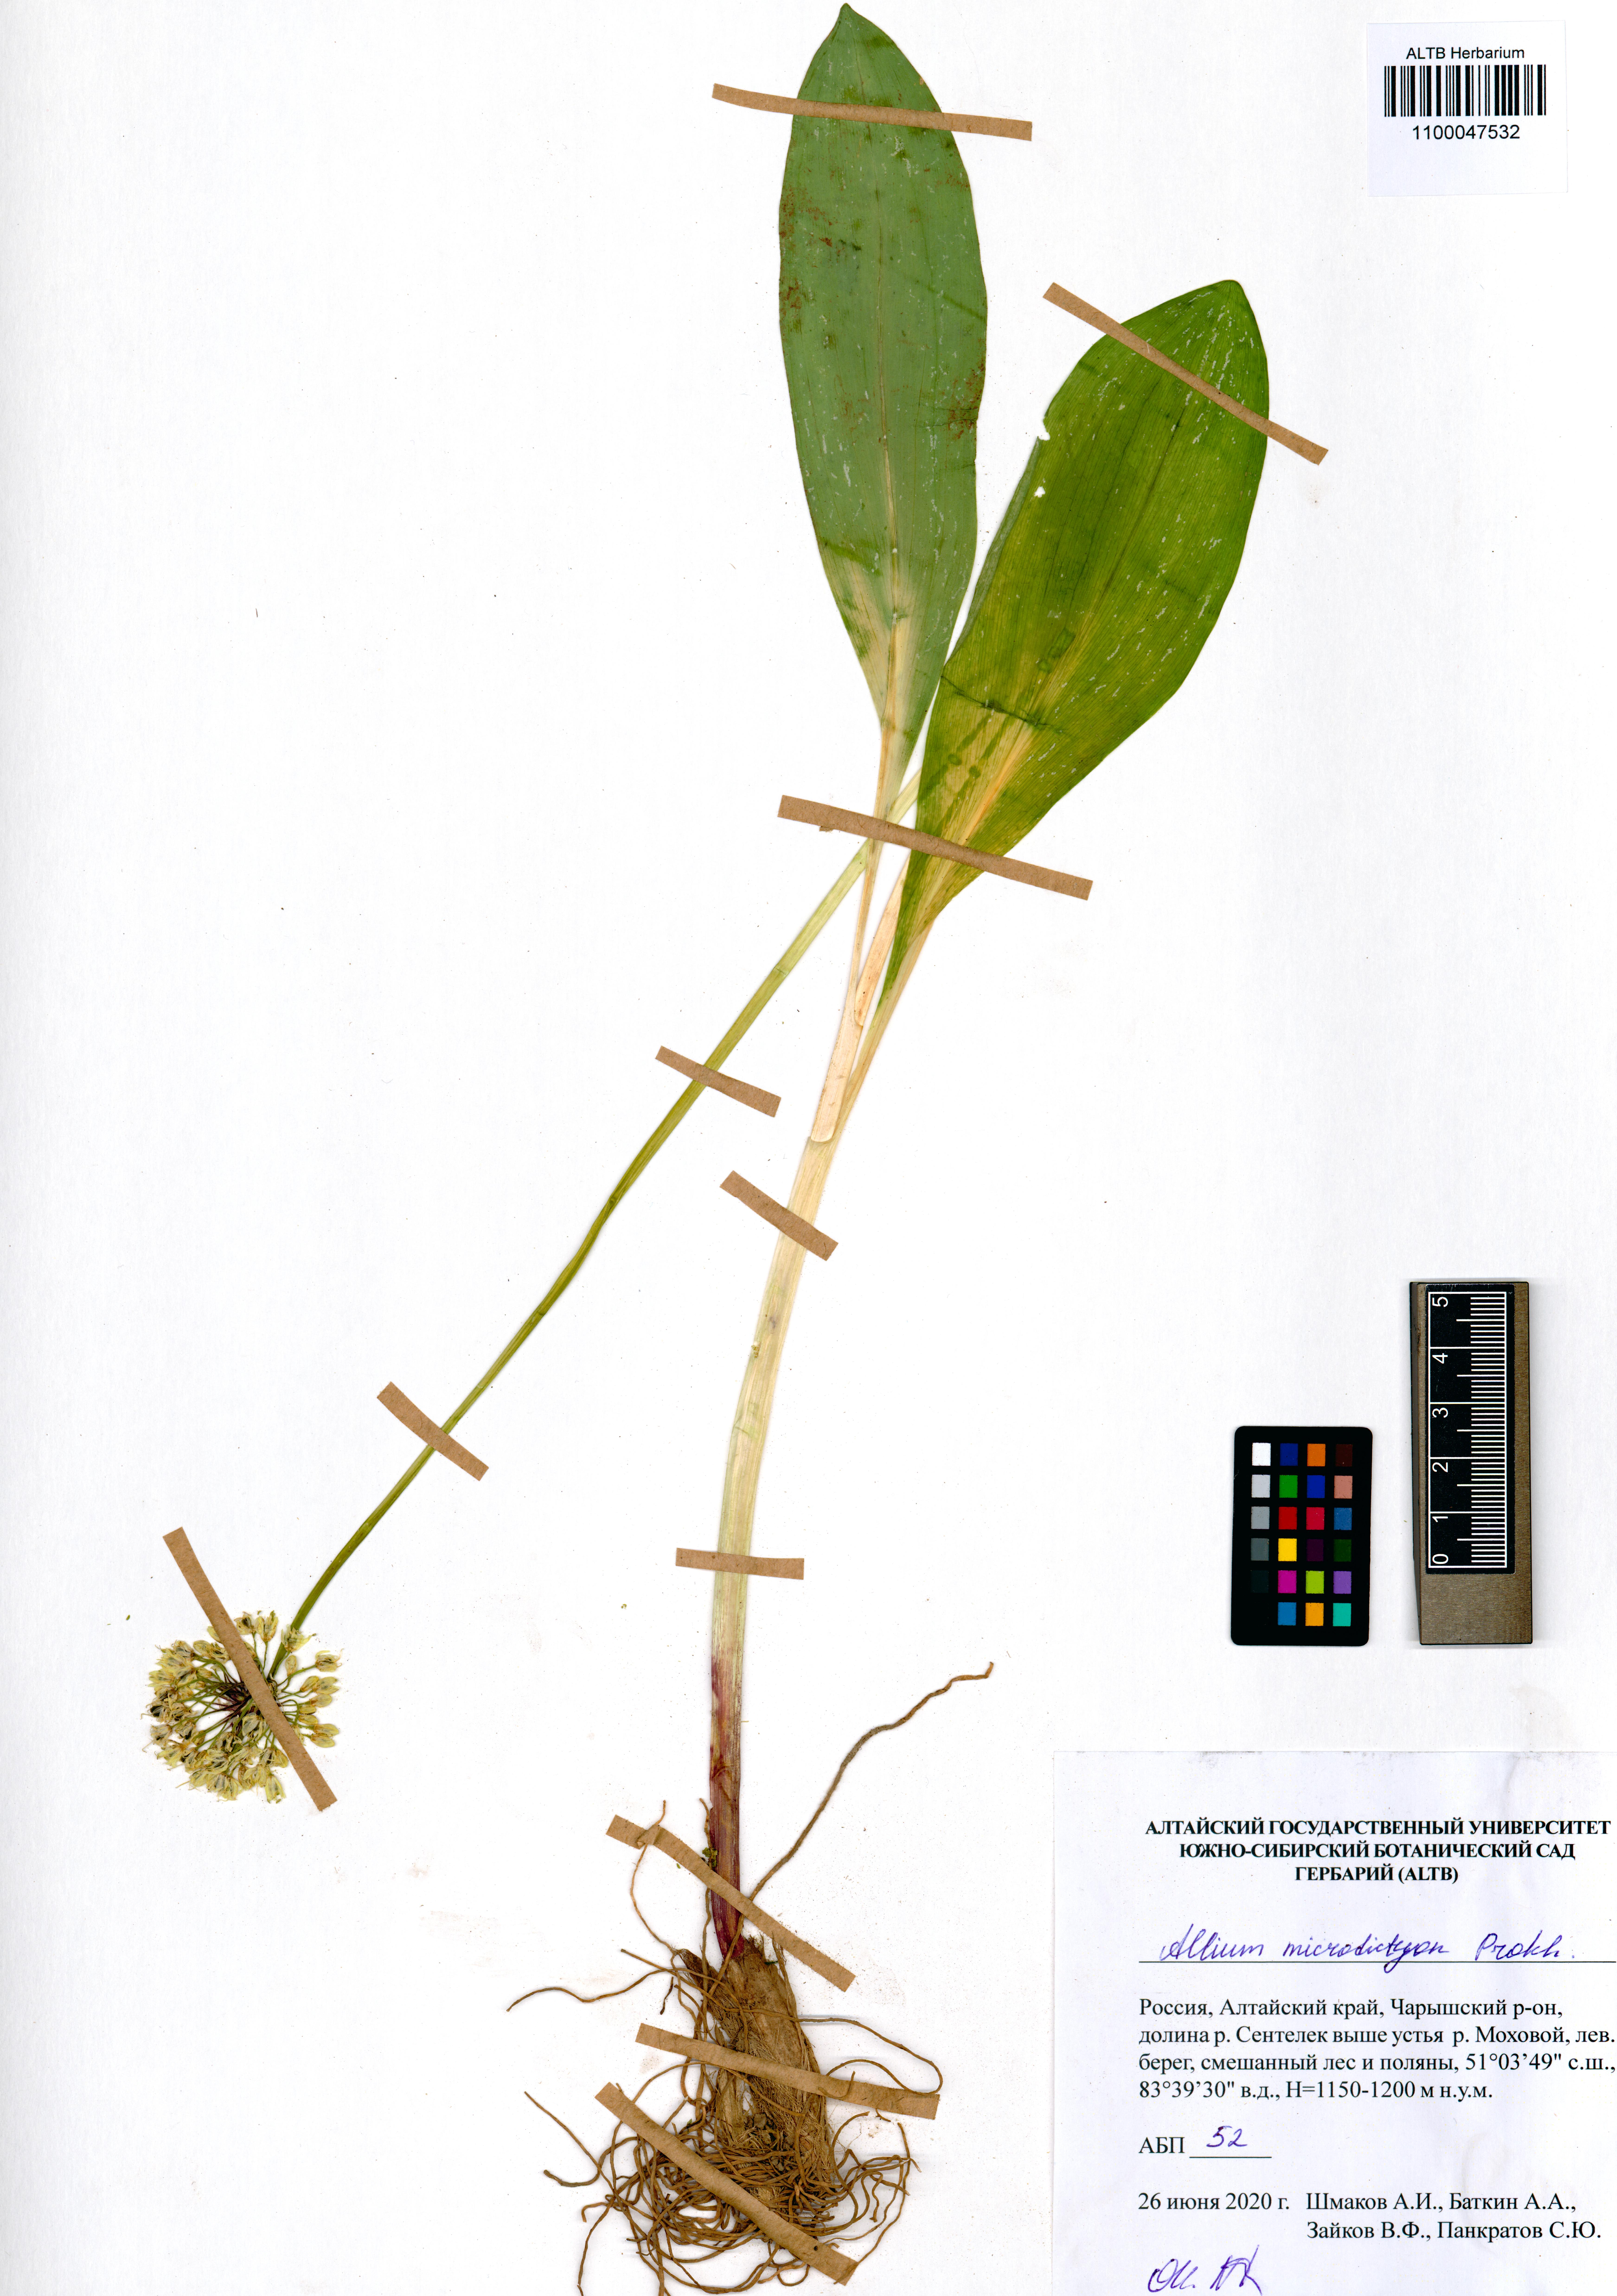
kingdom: Plantae
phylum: Tracheophyta
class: Liliopsida
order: Asparagales
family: Amaryllidaceae
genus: Allium
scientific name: Allium microdictyon
